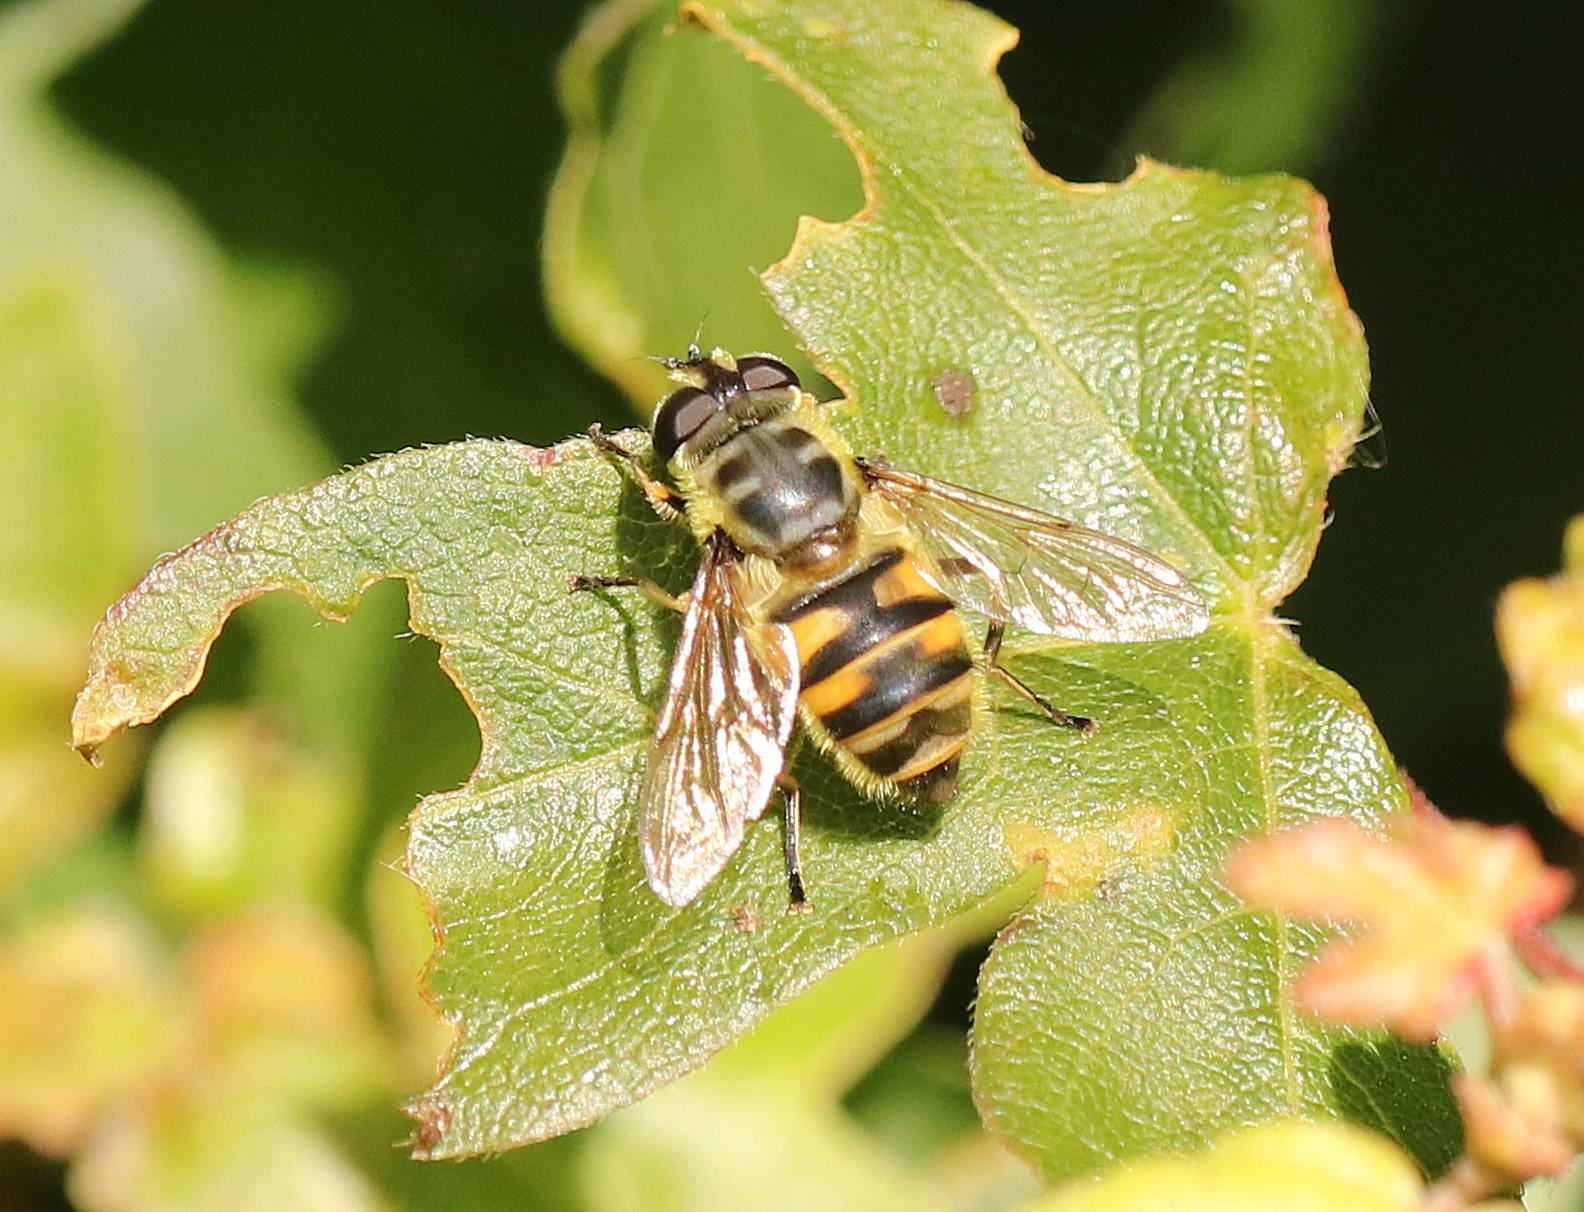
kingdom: Animalia
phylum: Arthropoda
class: Insecta
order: Diptera
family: Syrphidae
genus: Myathropa
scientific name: Myathropa florea
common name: Dødningehoved-svirreflue
